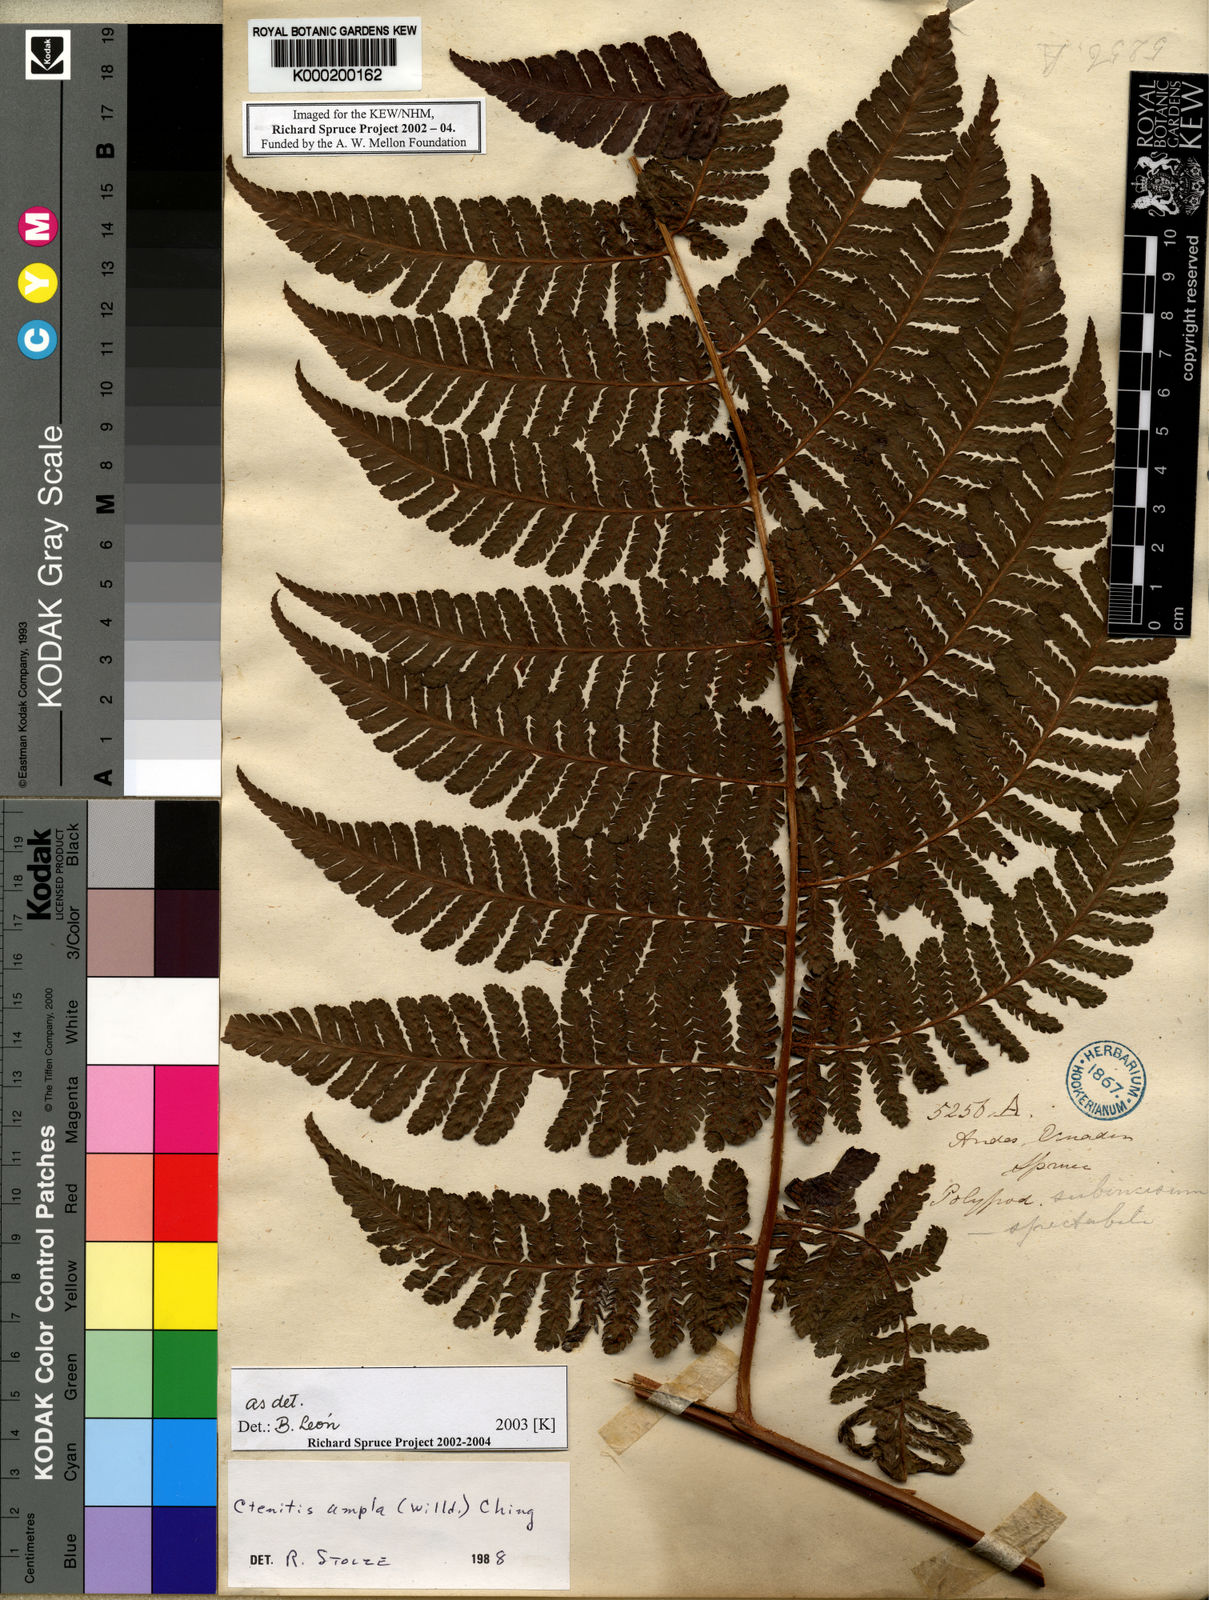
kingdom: Plantae
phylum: Tracheophyta
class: Polypodiopsida
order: Polypodiales
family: Dryopteridaceae
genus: Ctenitis
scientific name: Ctenitis sloanei
